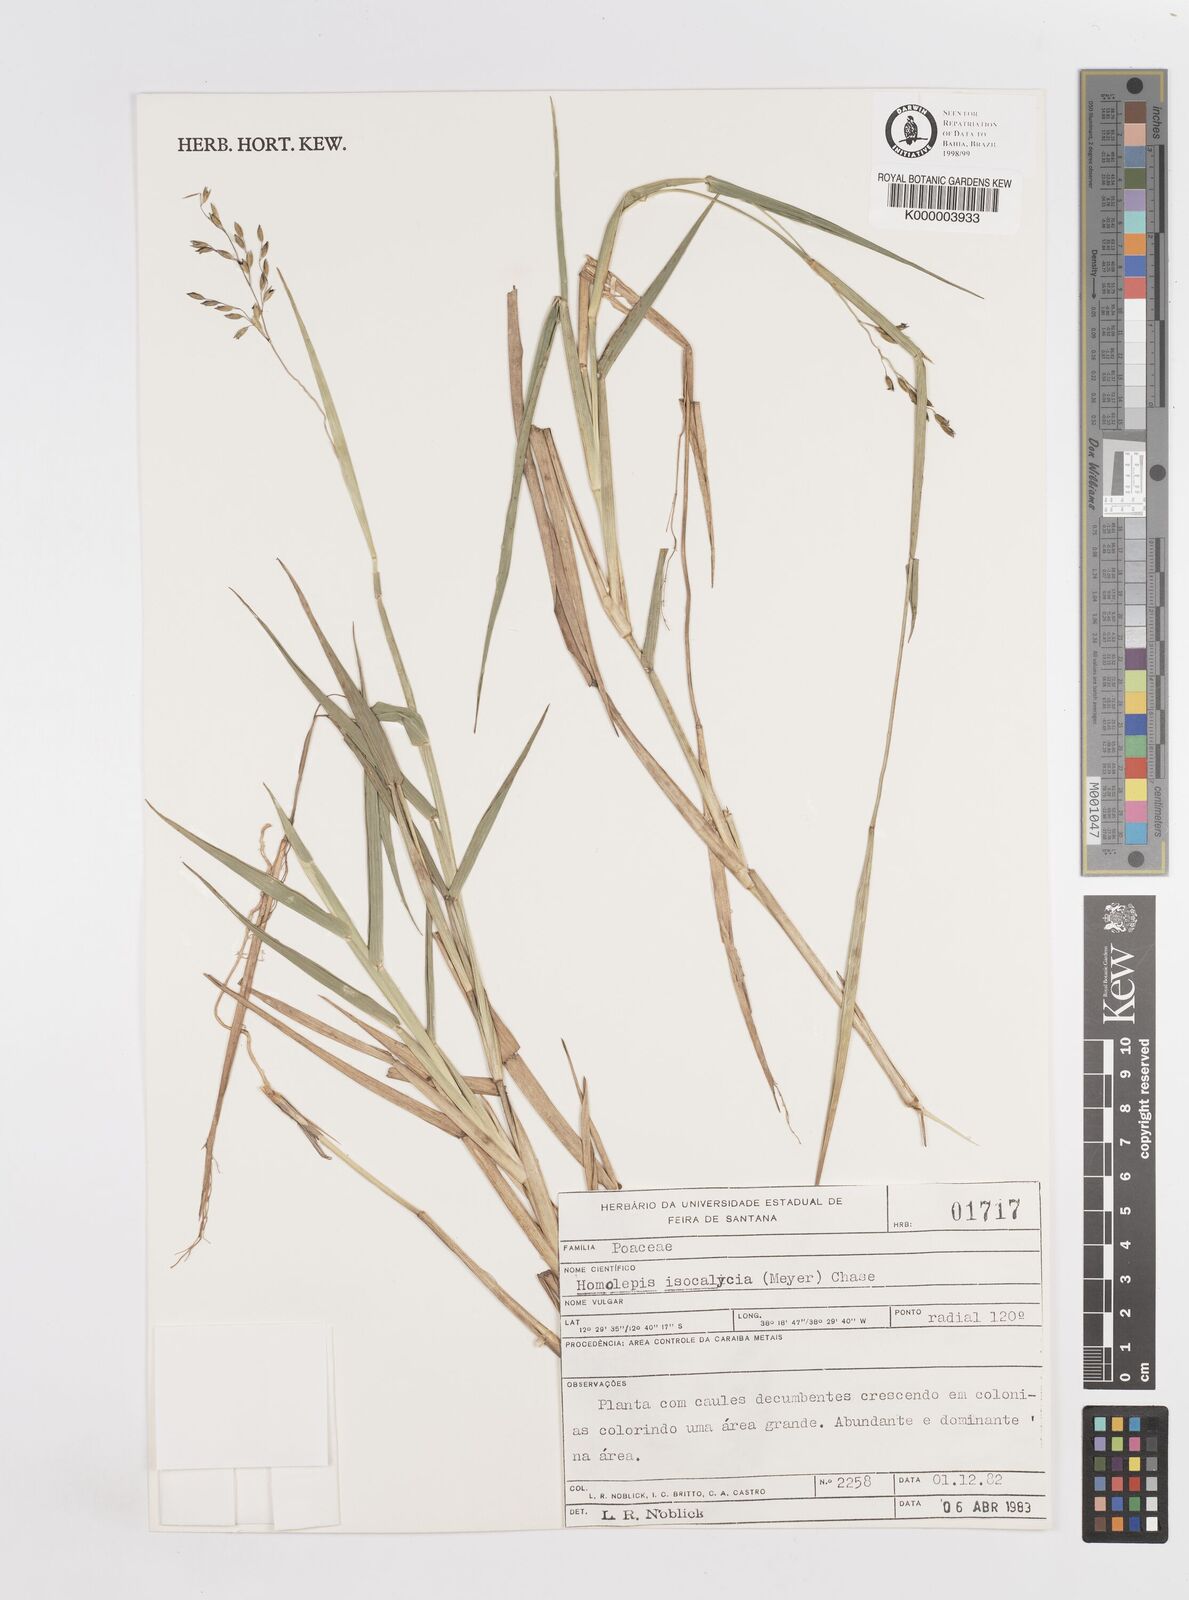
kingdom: Plantae
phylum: Tracheophyta
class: Liliopsida
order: Poales
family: Poaceae
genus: Homolepis
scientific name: Homolepis
